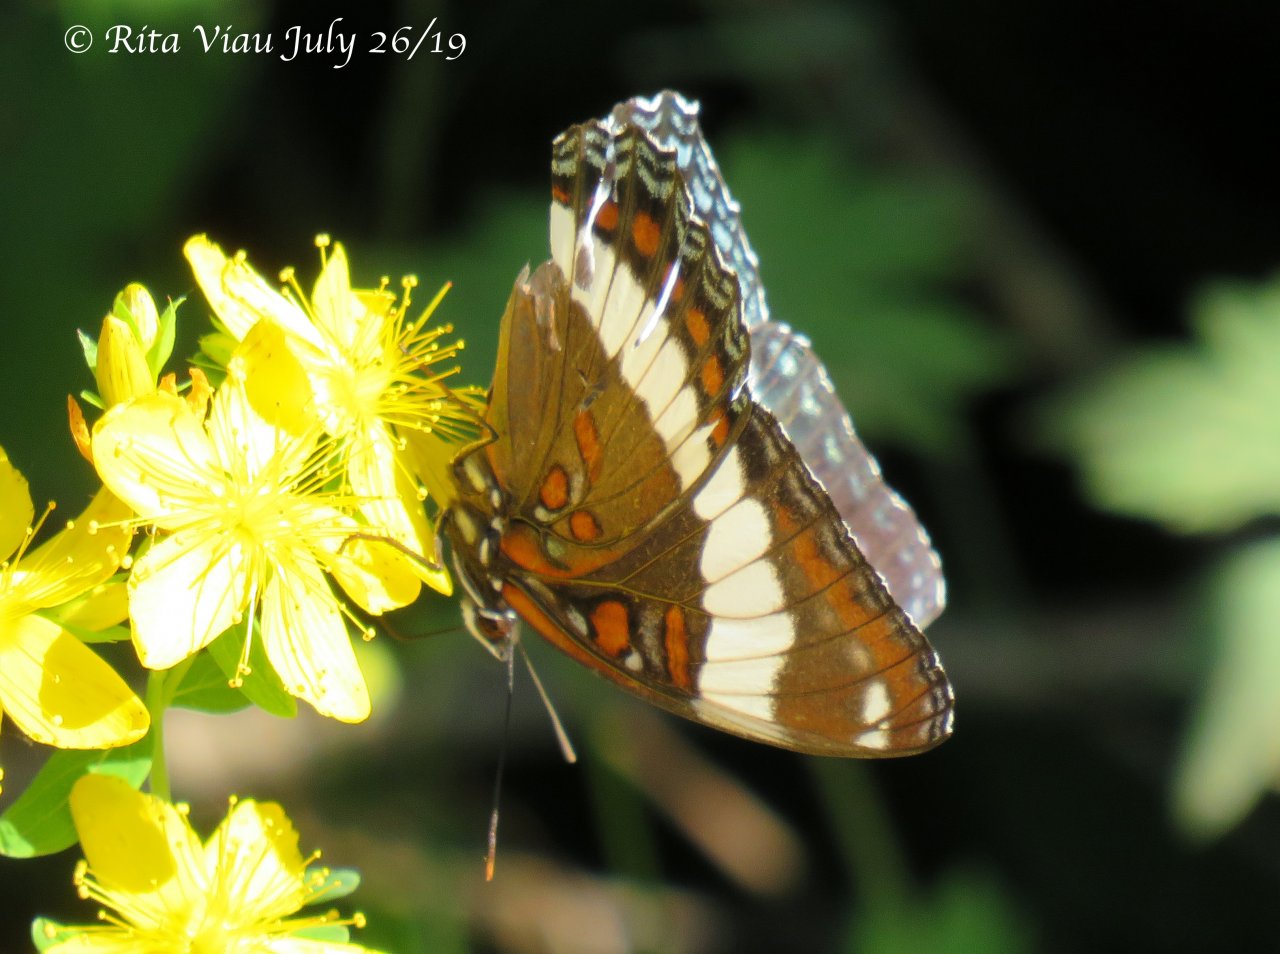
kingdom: Animalia
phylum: Arthropoda
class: Insecta
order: Lepidoptera
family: Nymphalidae
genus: Limenitis
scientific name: Limenitis arthemis
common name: Red-spotted Admiral
